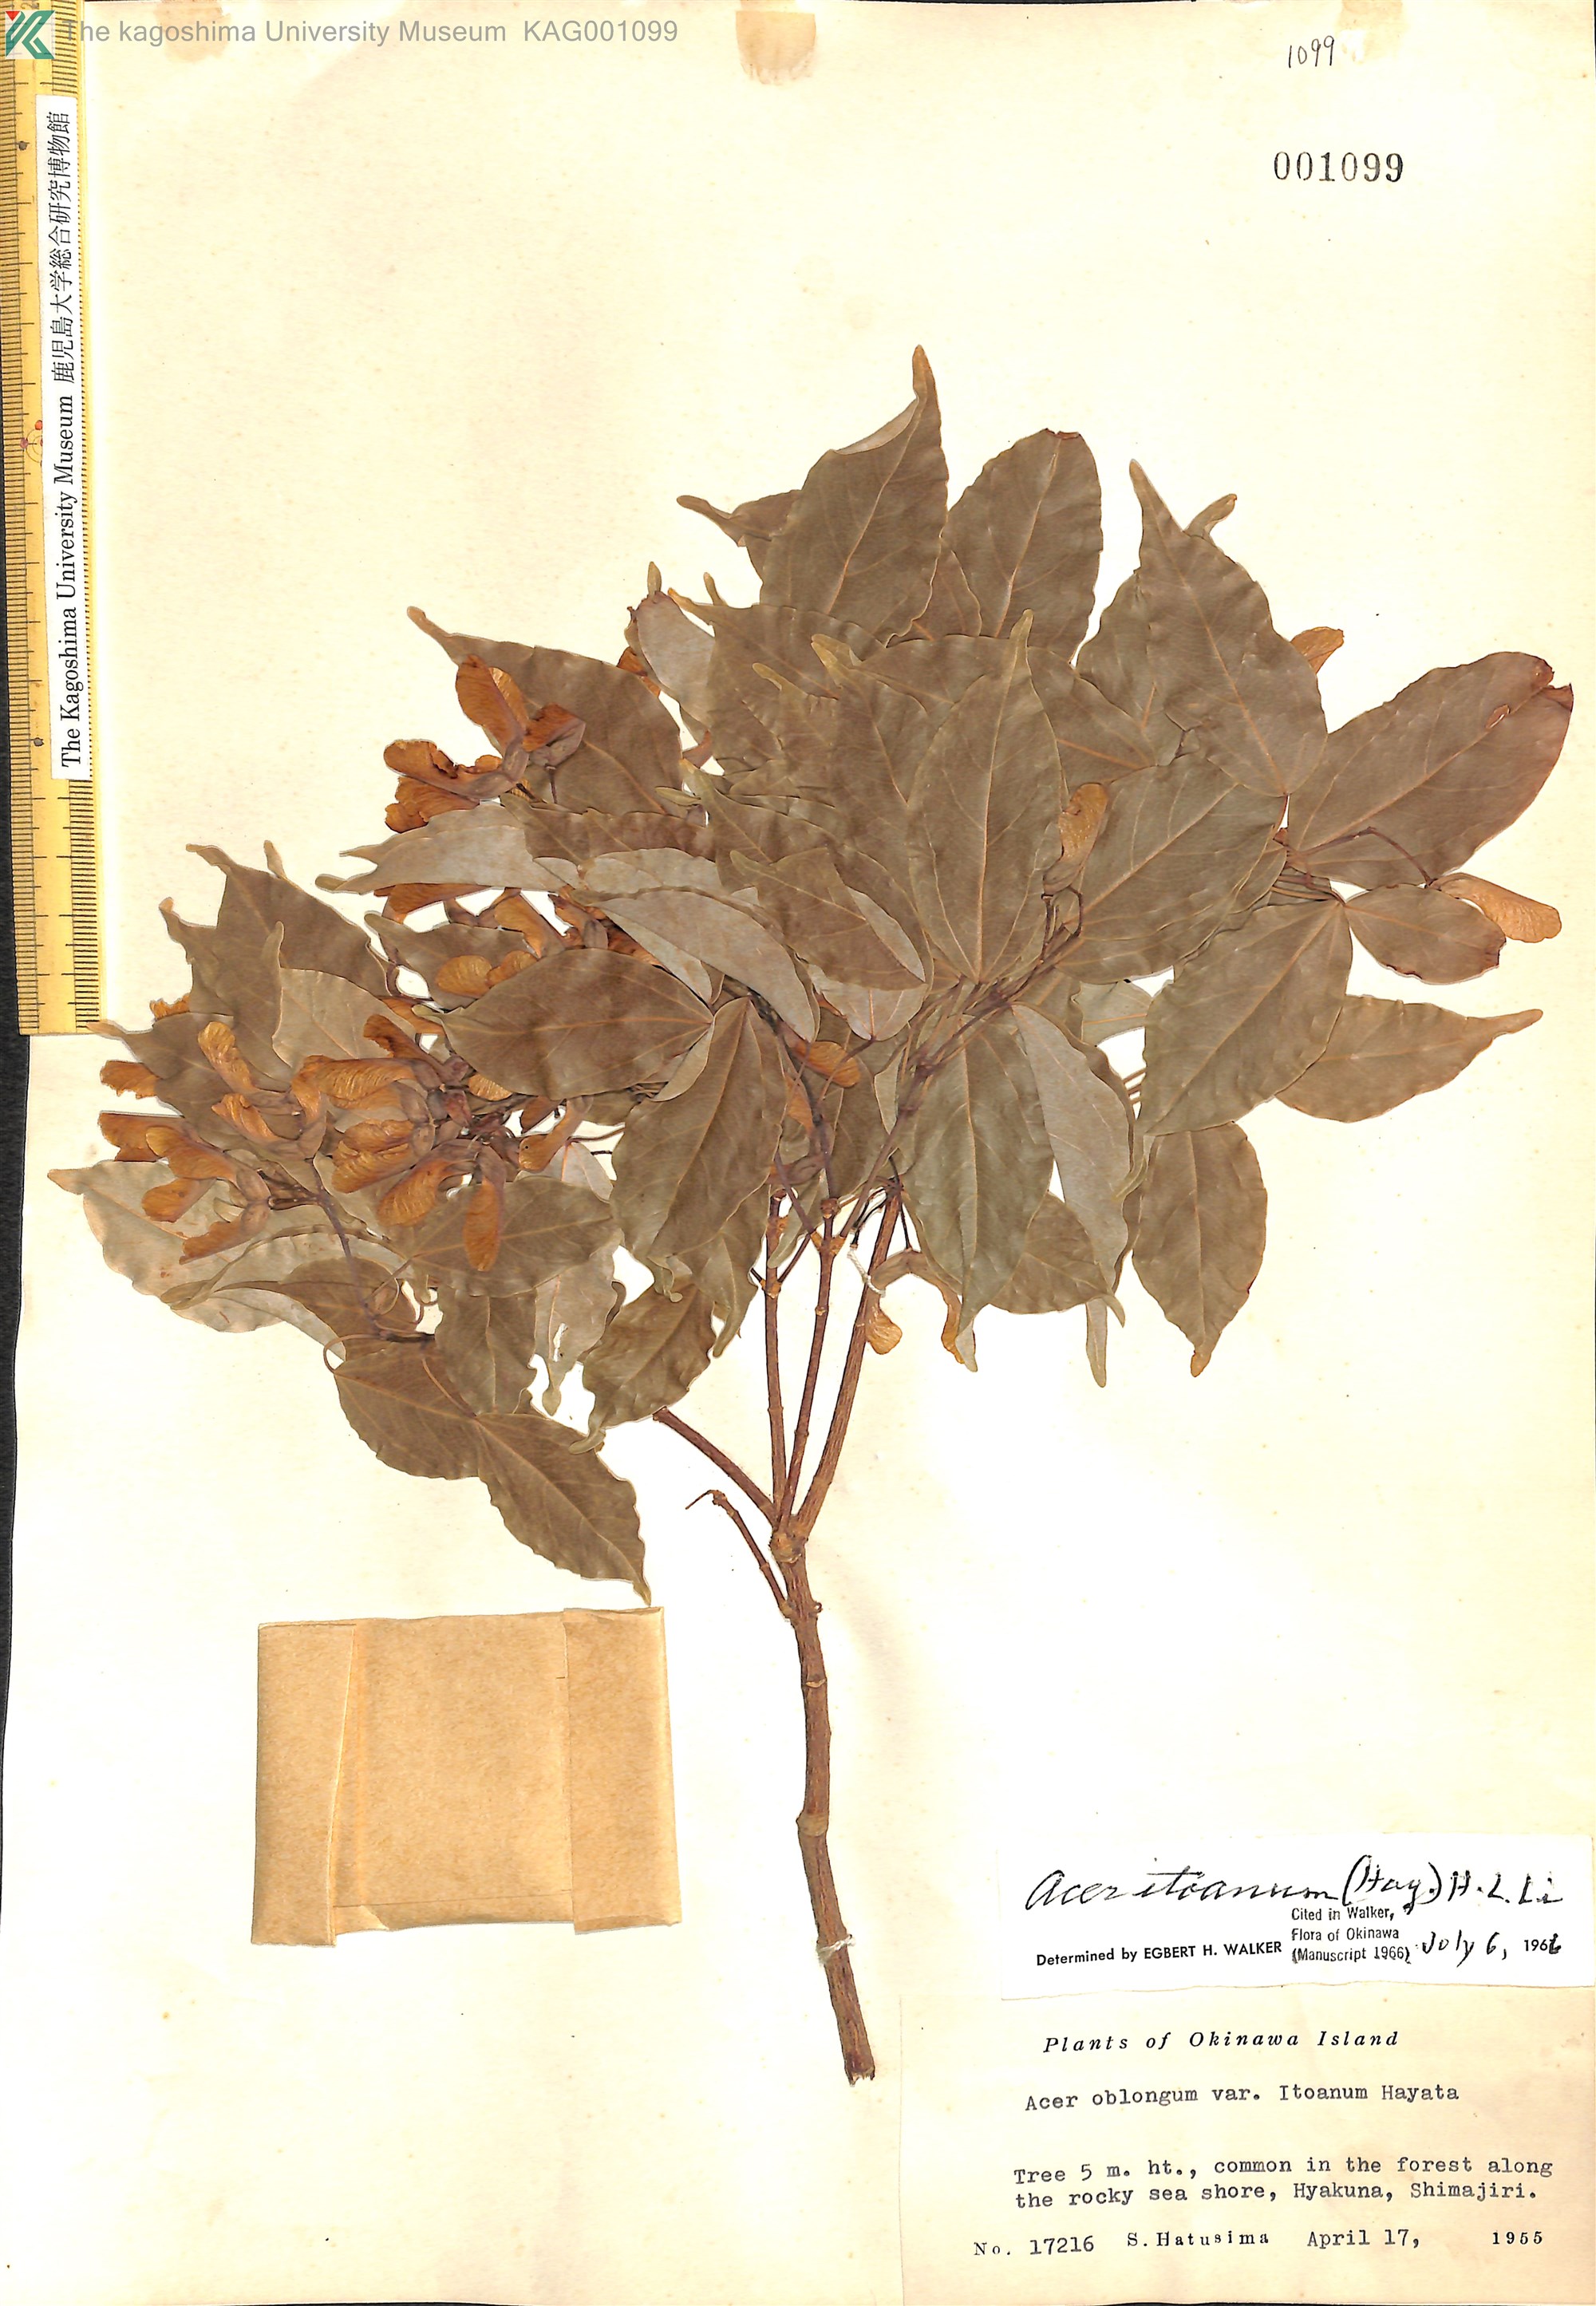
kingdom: Plantae
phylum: Tracheophyta
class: Magnoliopsida
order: Sapindales
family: Sapindaceae
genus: Acer
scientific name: Acer oblongum
